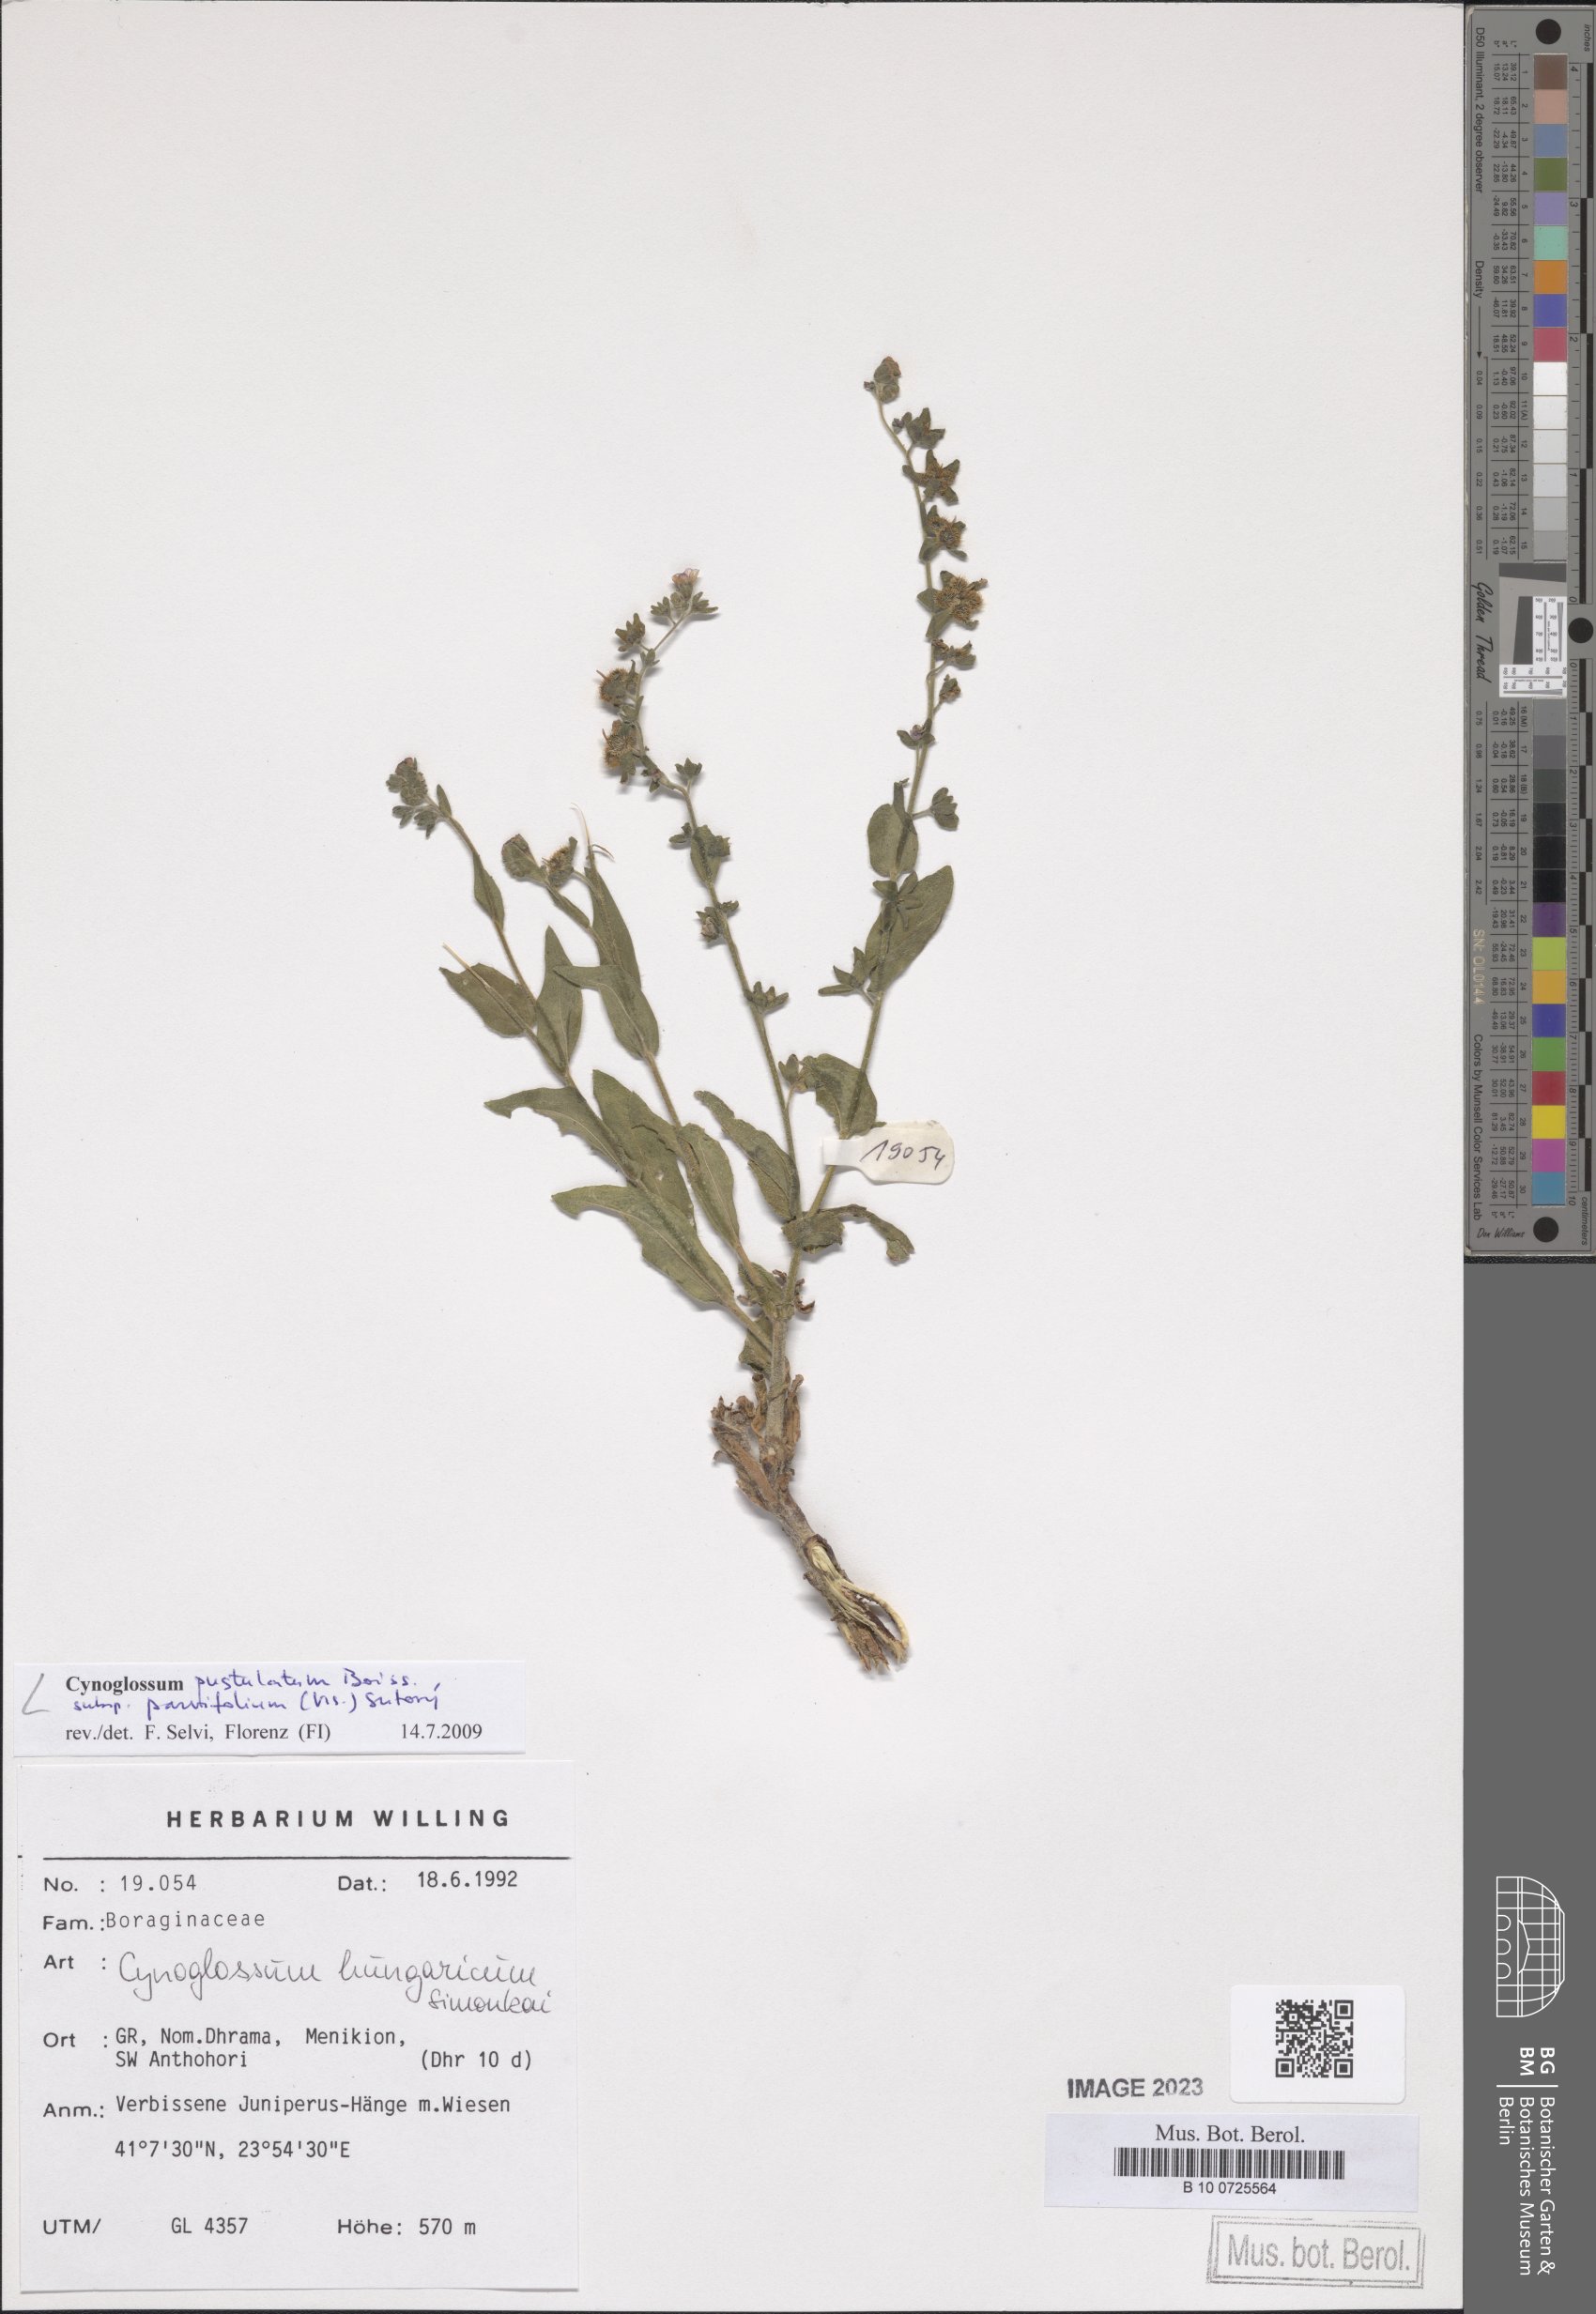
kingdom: Plantae
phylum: Tracheophyta
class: Magnoliopsida
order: Boraginales
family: Boraginaceae
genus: Cynoglossum
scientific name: Cynoglossum pustulatum
